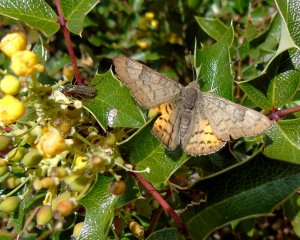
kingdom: Animalia
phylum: Arthropoda
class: Insecta
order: Lepidoptera
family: Lycaenidae
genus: Emesis
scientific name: Emesis zela
